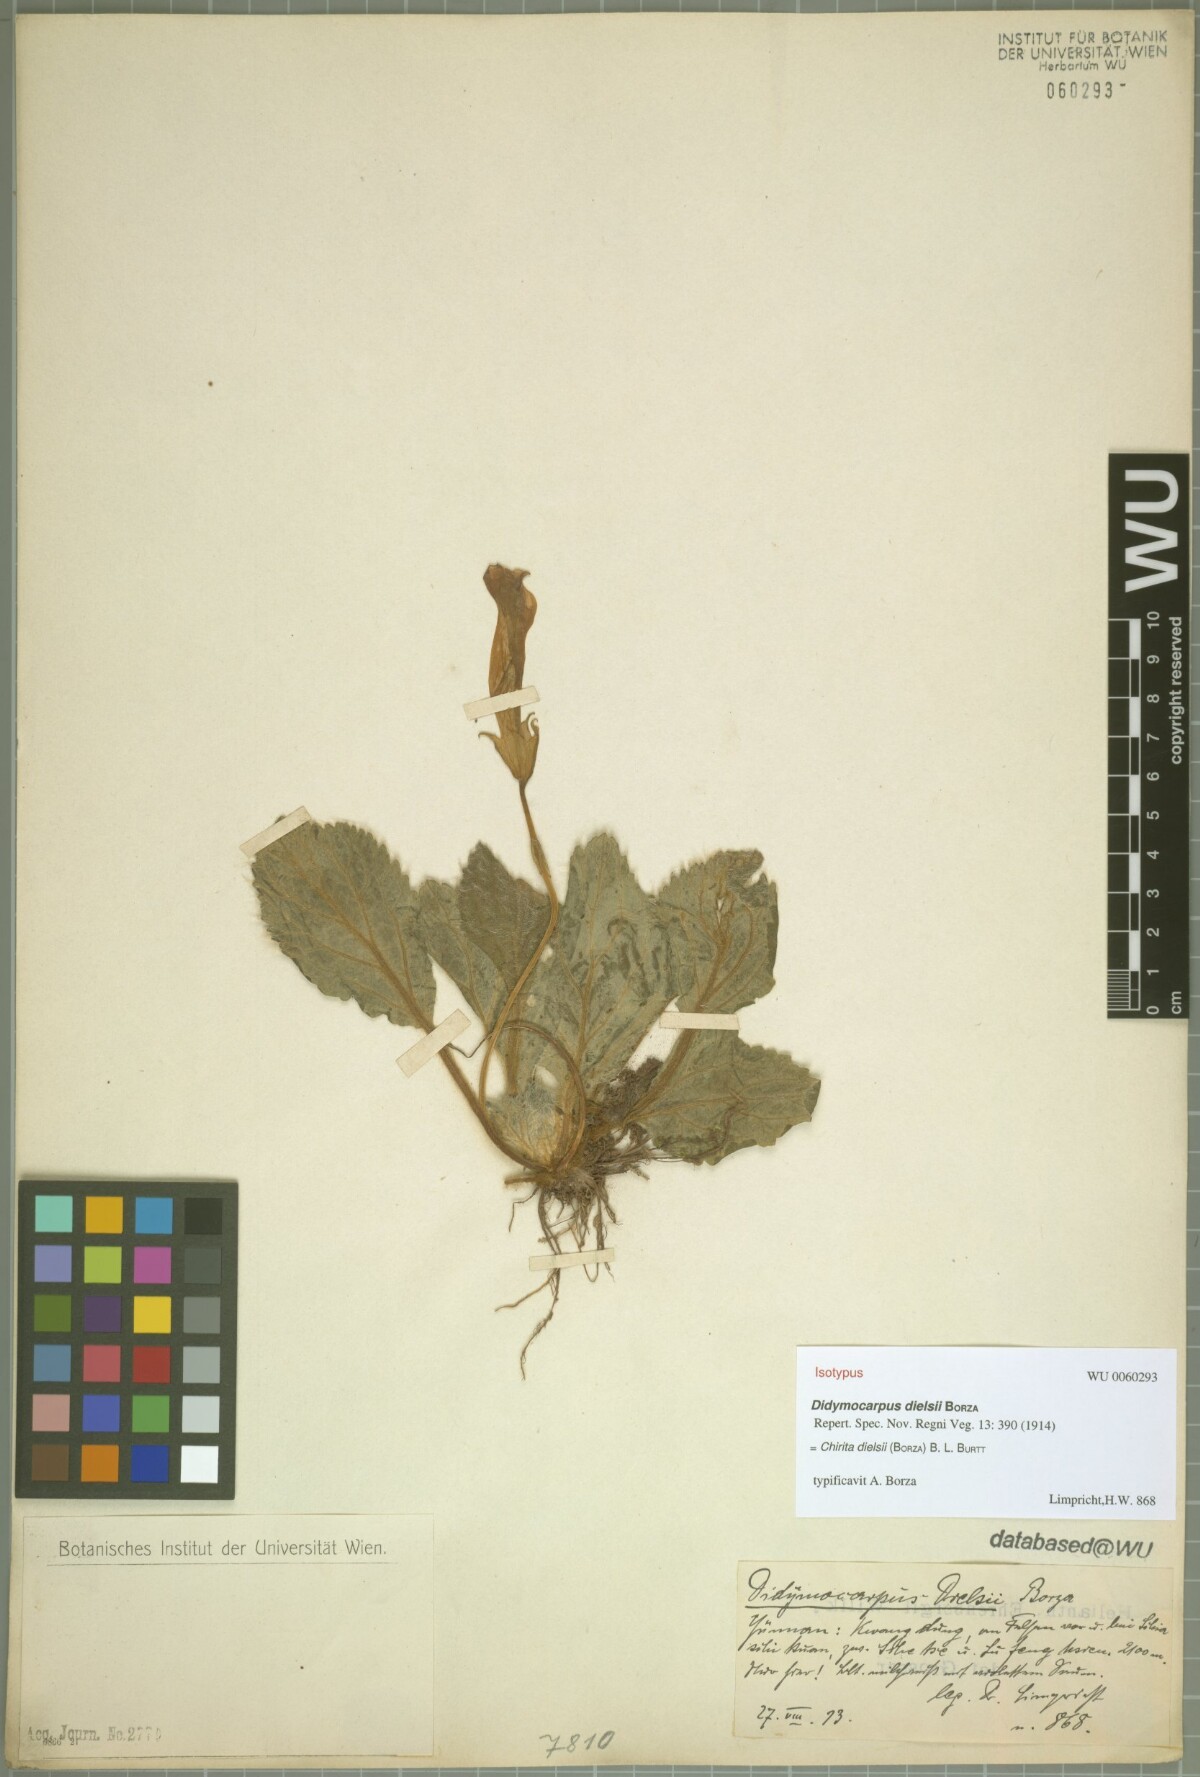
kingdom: Plantae
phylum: Tracheophyta
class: Magnoliopsida
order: Lamiales
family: Gesneriaceae
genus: Henckelia
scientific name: Henckelia dielsii
